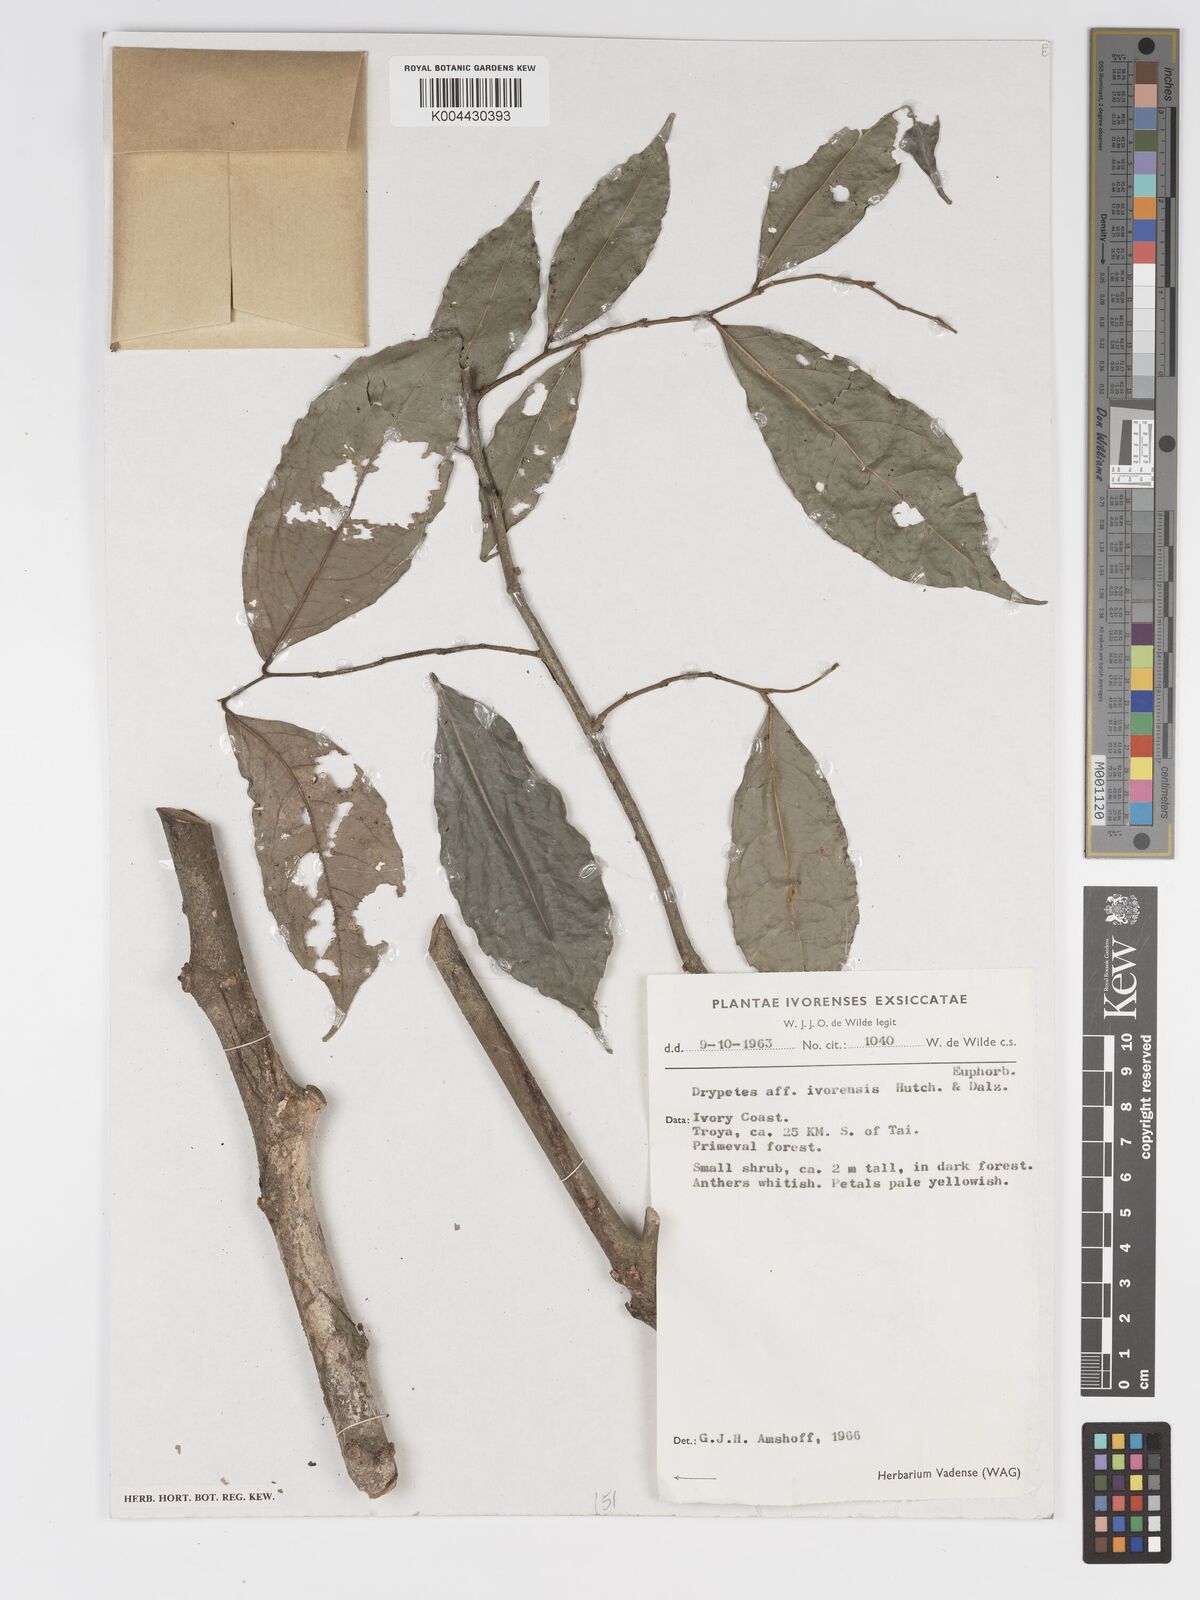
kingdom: Plantae
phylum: Tracheophyta
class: Magnoliopsida
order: Malpighiales
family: Putranjivaceae
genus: Drypetes
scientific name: Drypetes ivorensis
